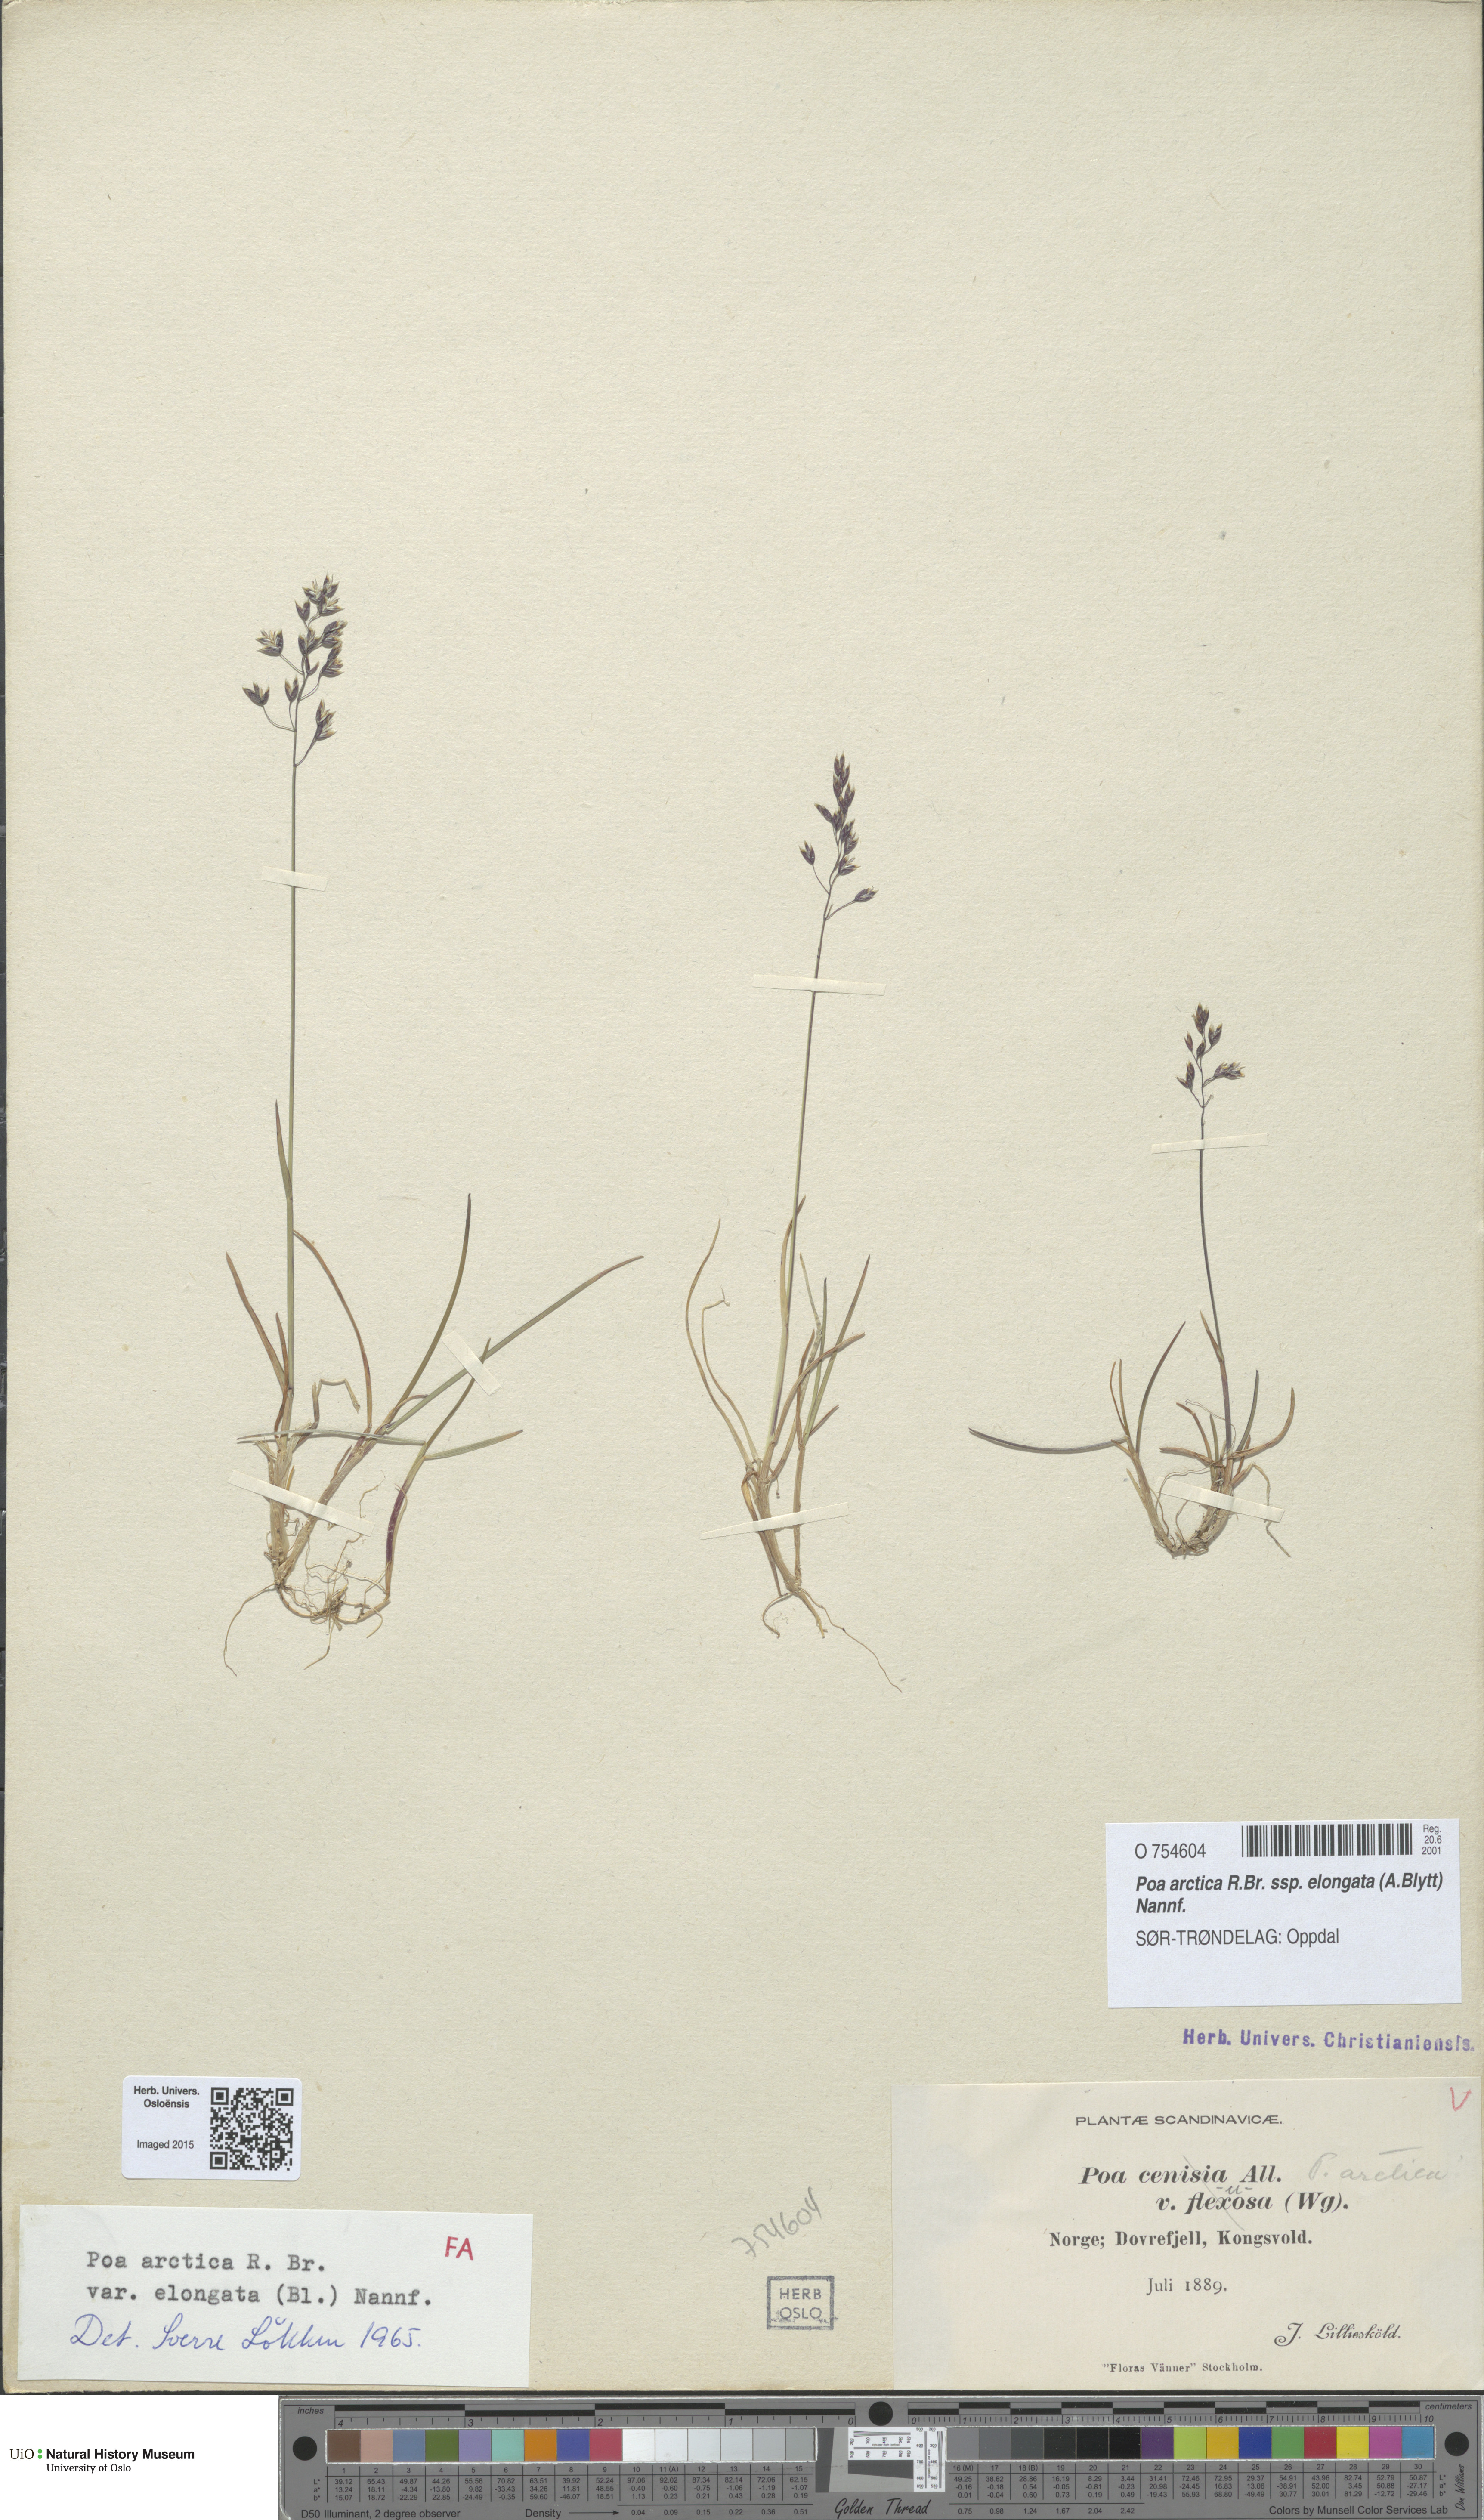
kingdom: Plantae
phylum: Tracheophyta
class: Liliopsida
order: Poales
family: Poaceae
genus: Poa
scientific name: Poa arctica
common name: Arctic bluegrass
